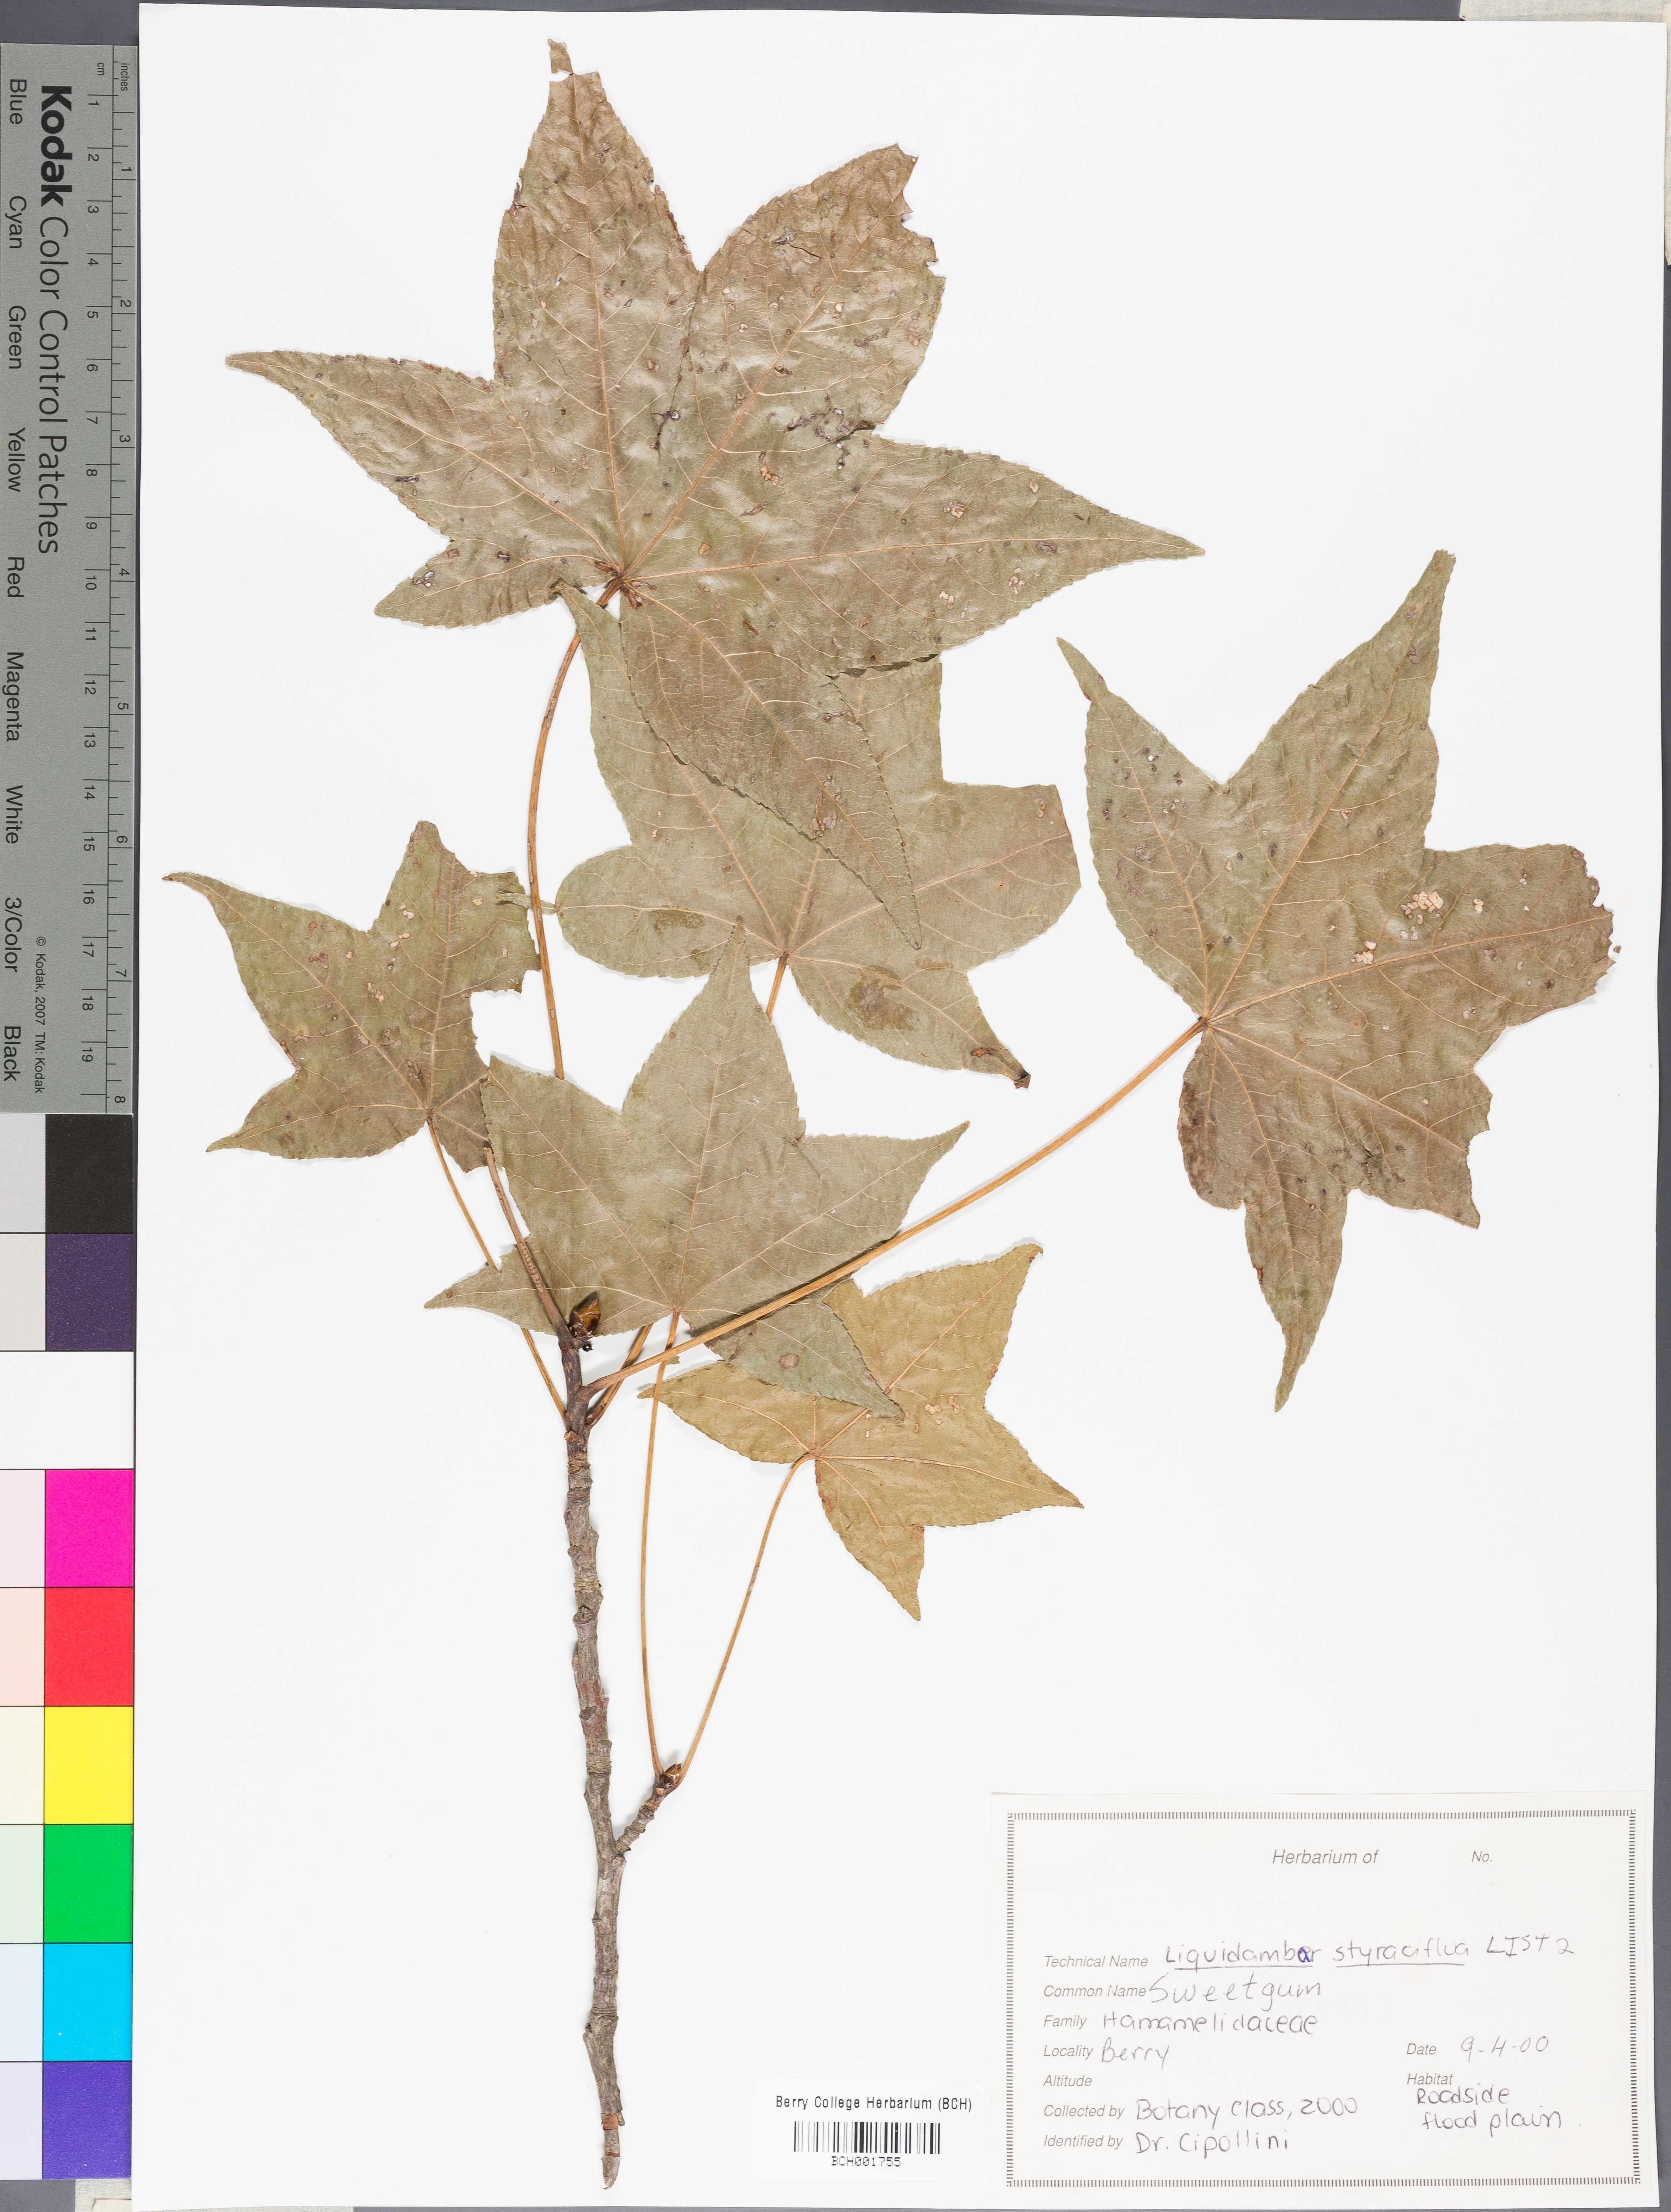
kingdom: Plantae
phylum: Tracheophyta
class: Magnoliopsida
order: Saxifragales
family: Altingiaceae
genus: Liquidambar
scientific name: Liquidambar styraciflua
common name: Sweet gum
